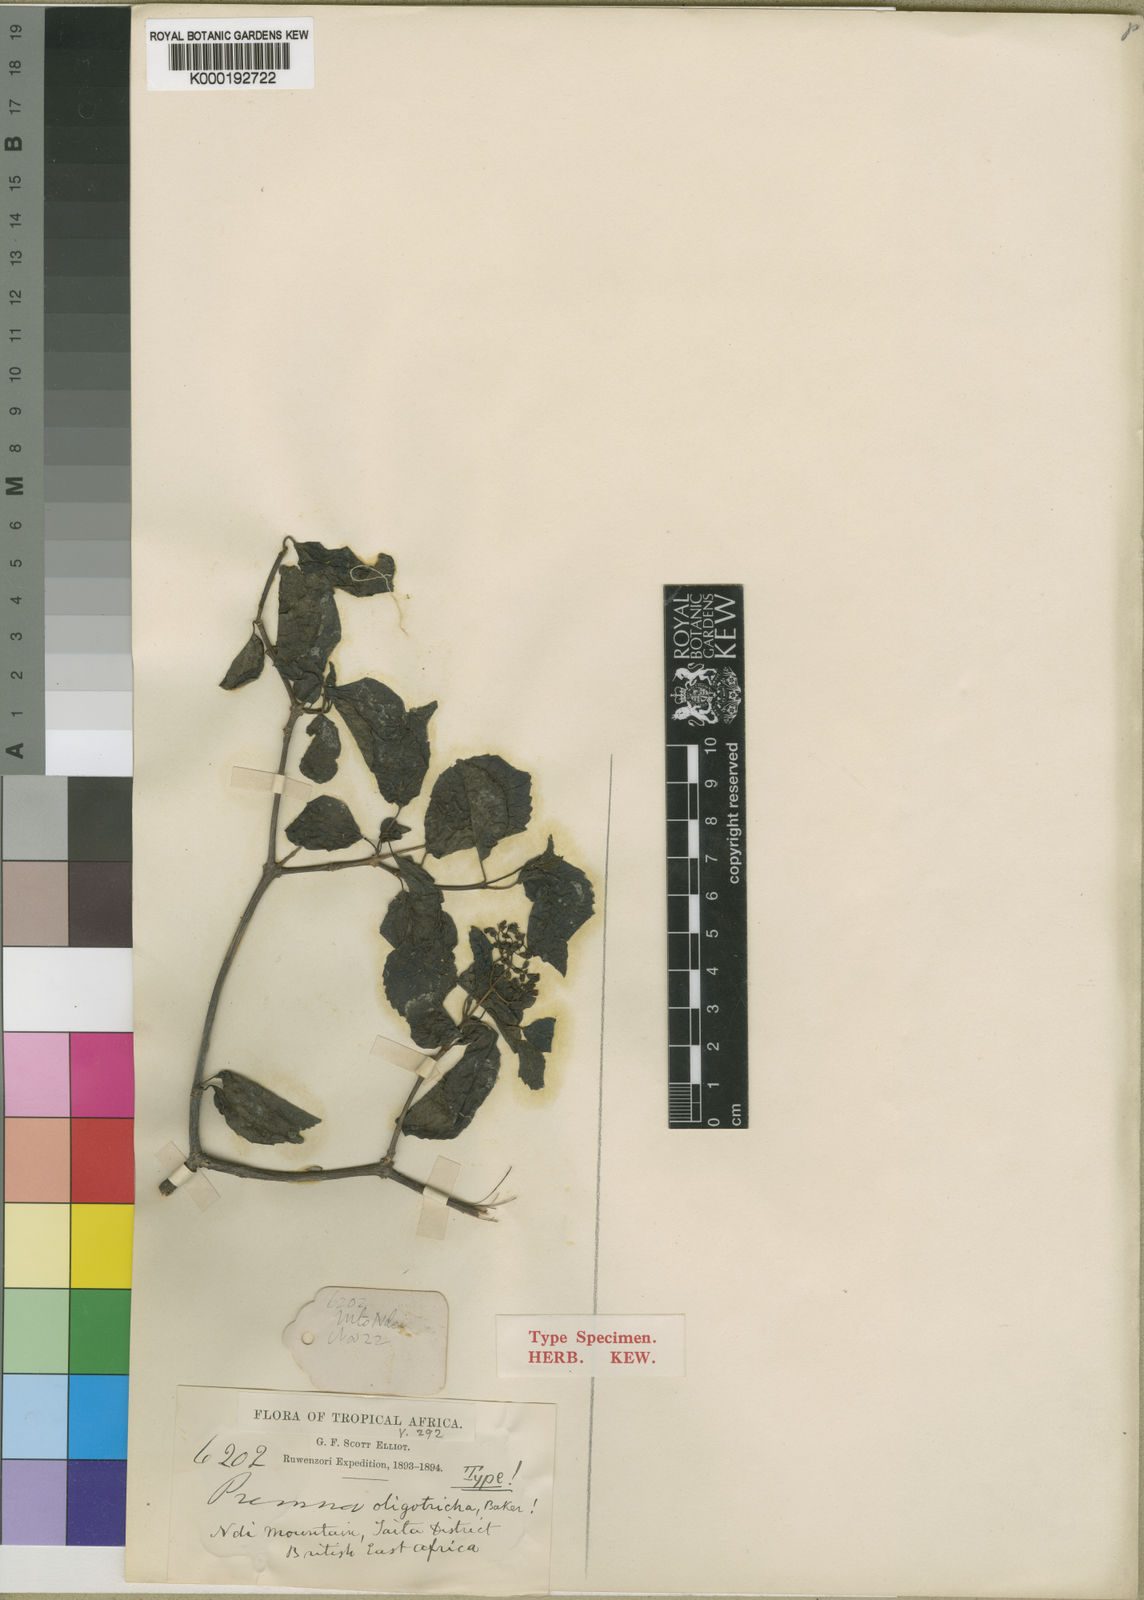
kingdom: Plantae
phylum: Tracheophyta
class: Magnoliopsida
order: Lamiales
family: Lamiaceae
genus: Premna
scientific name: Premna oligotricha
